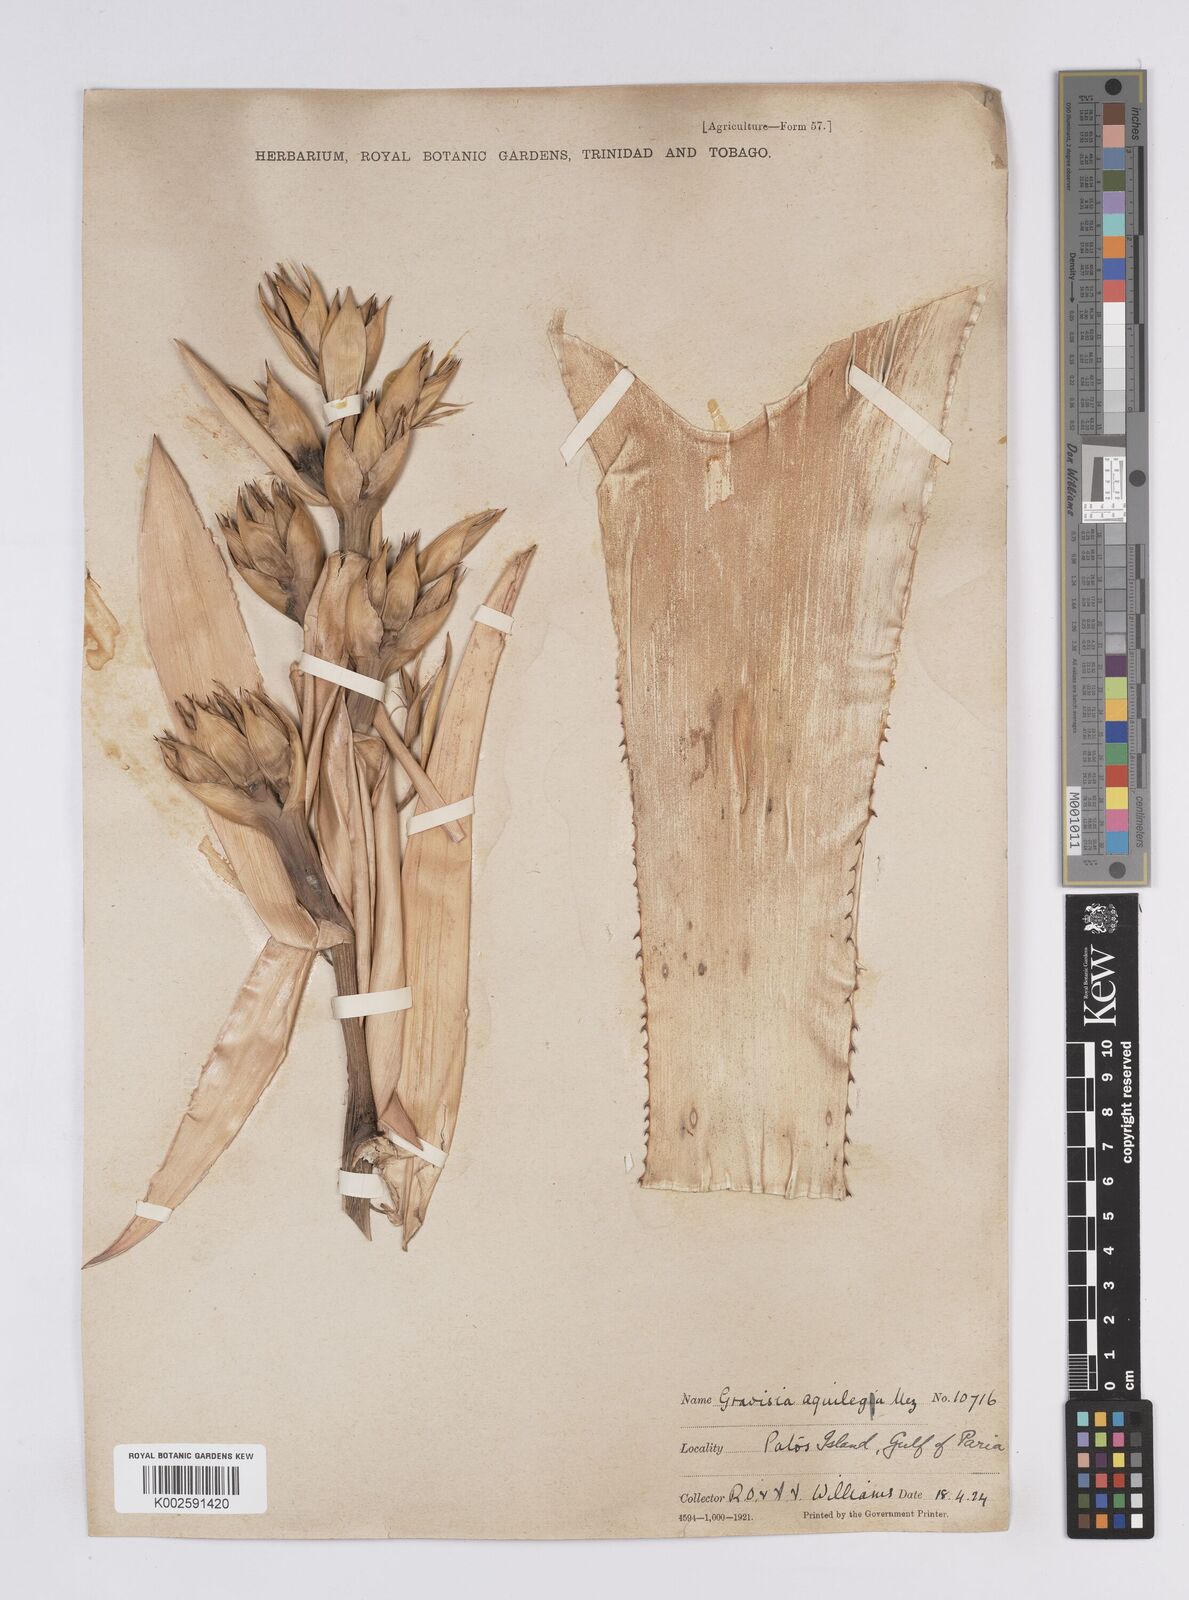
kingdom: Plantae
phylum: Tracheophyta
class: Liliopsida
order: Poales
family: Bromeliaceae
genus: Aechmea
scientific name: Aechmea aquilega
